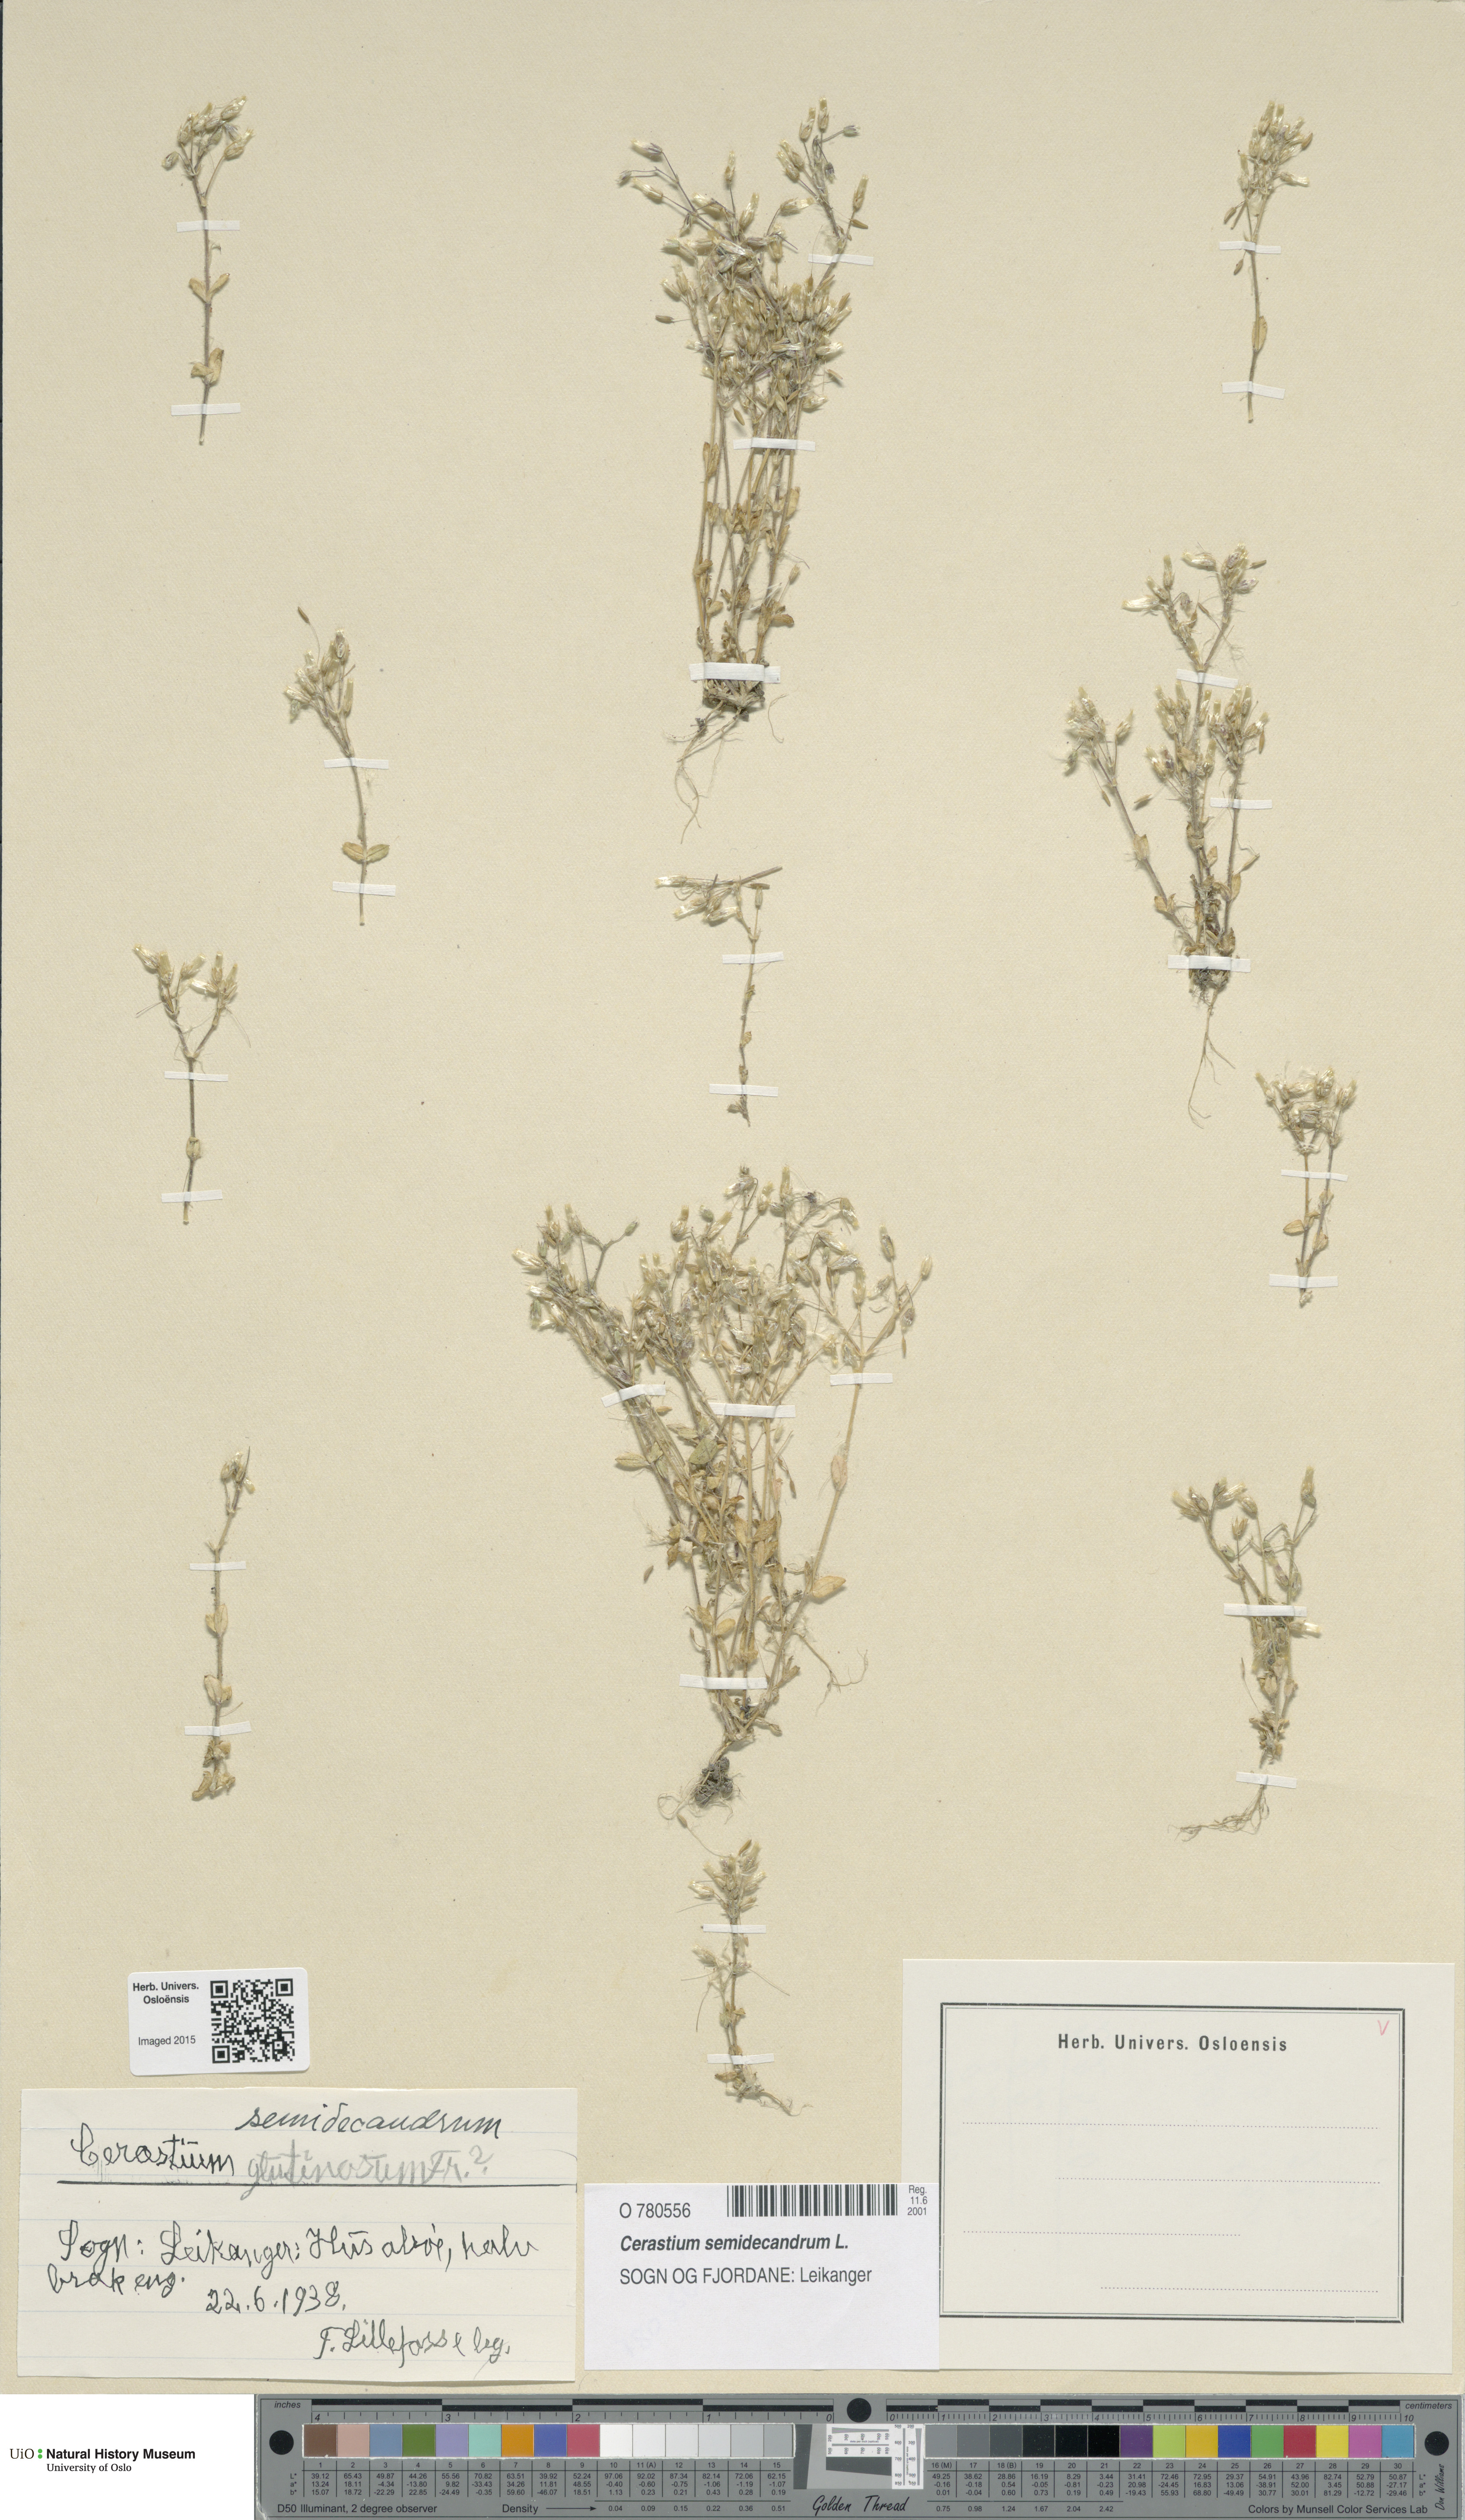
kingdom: Plantae
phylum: Tracheophyta
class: Magnoliopsida
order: Caryophyllales
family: Caryophyllaceae
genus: Cerastium
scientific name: Cerastium semidecandrum
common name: Little mouse-ear
